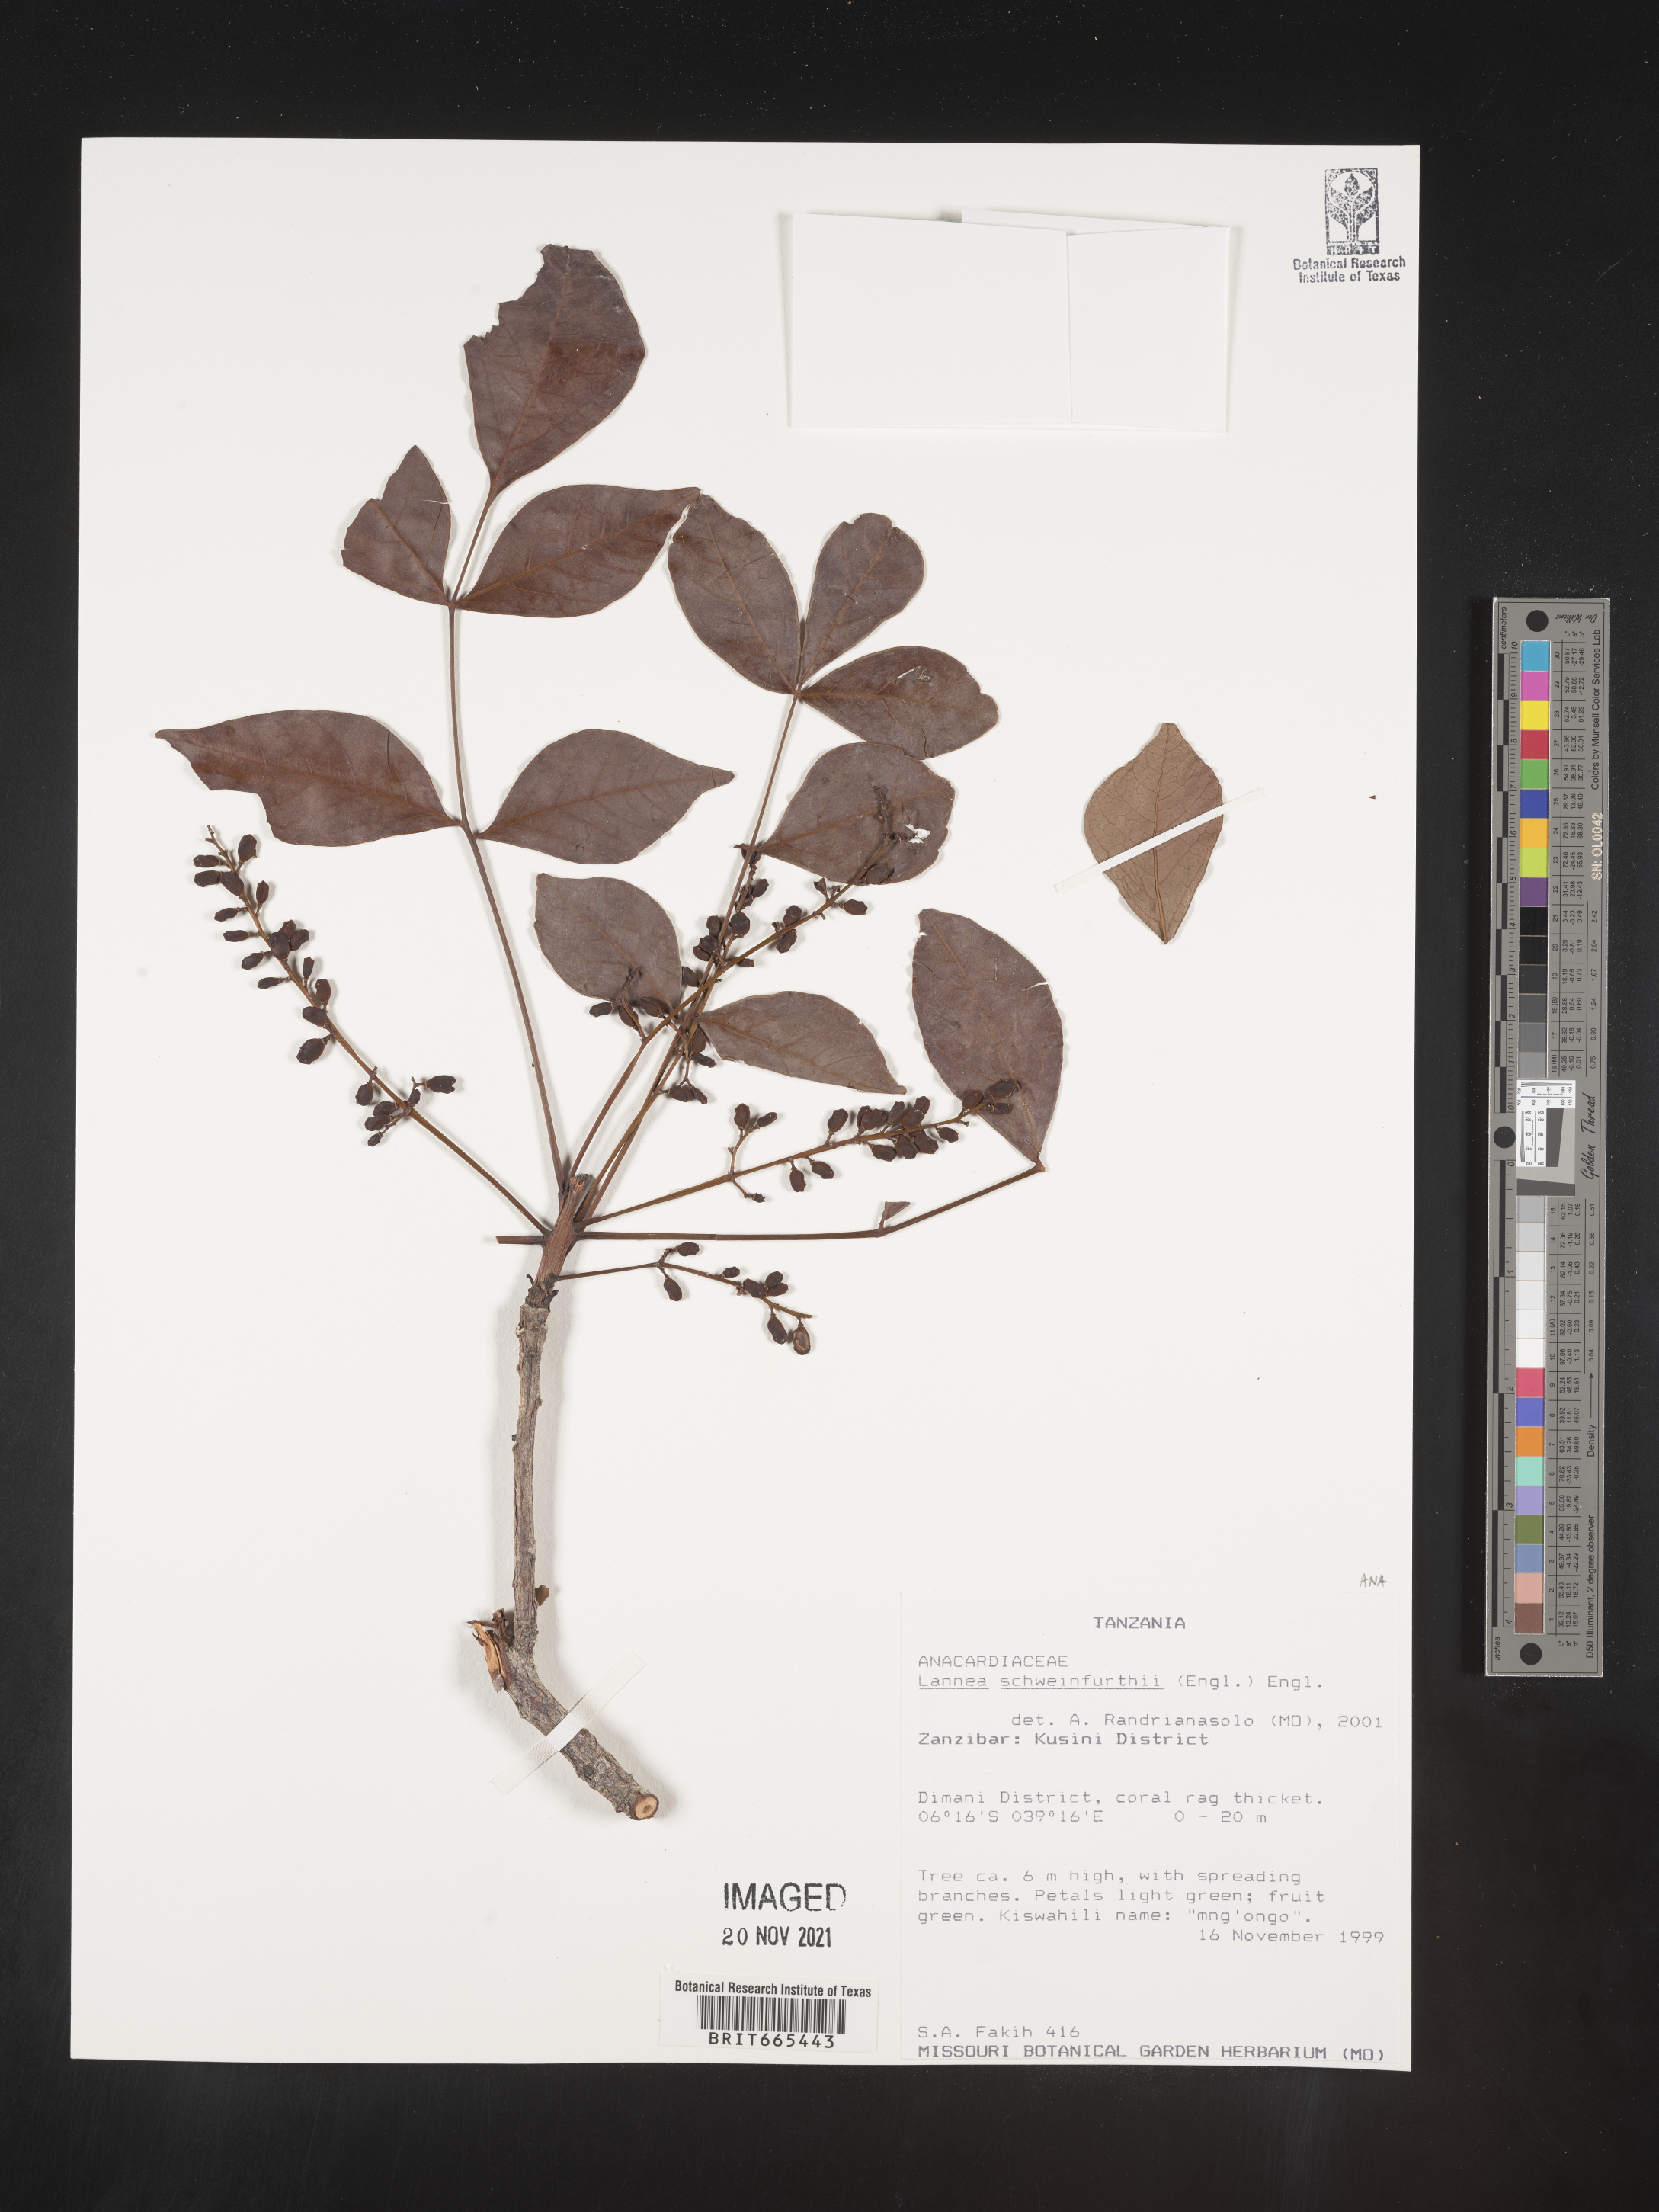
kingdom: Plantae
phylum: Tracheophyta
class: Magnoliopsida
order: Sapindales
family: Anacardiaceae
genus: Lannea
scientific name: Lannea schweinfurthii
